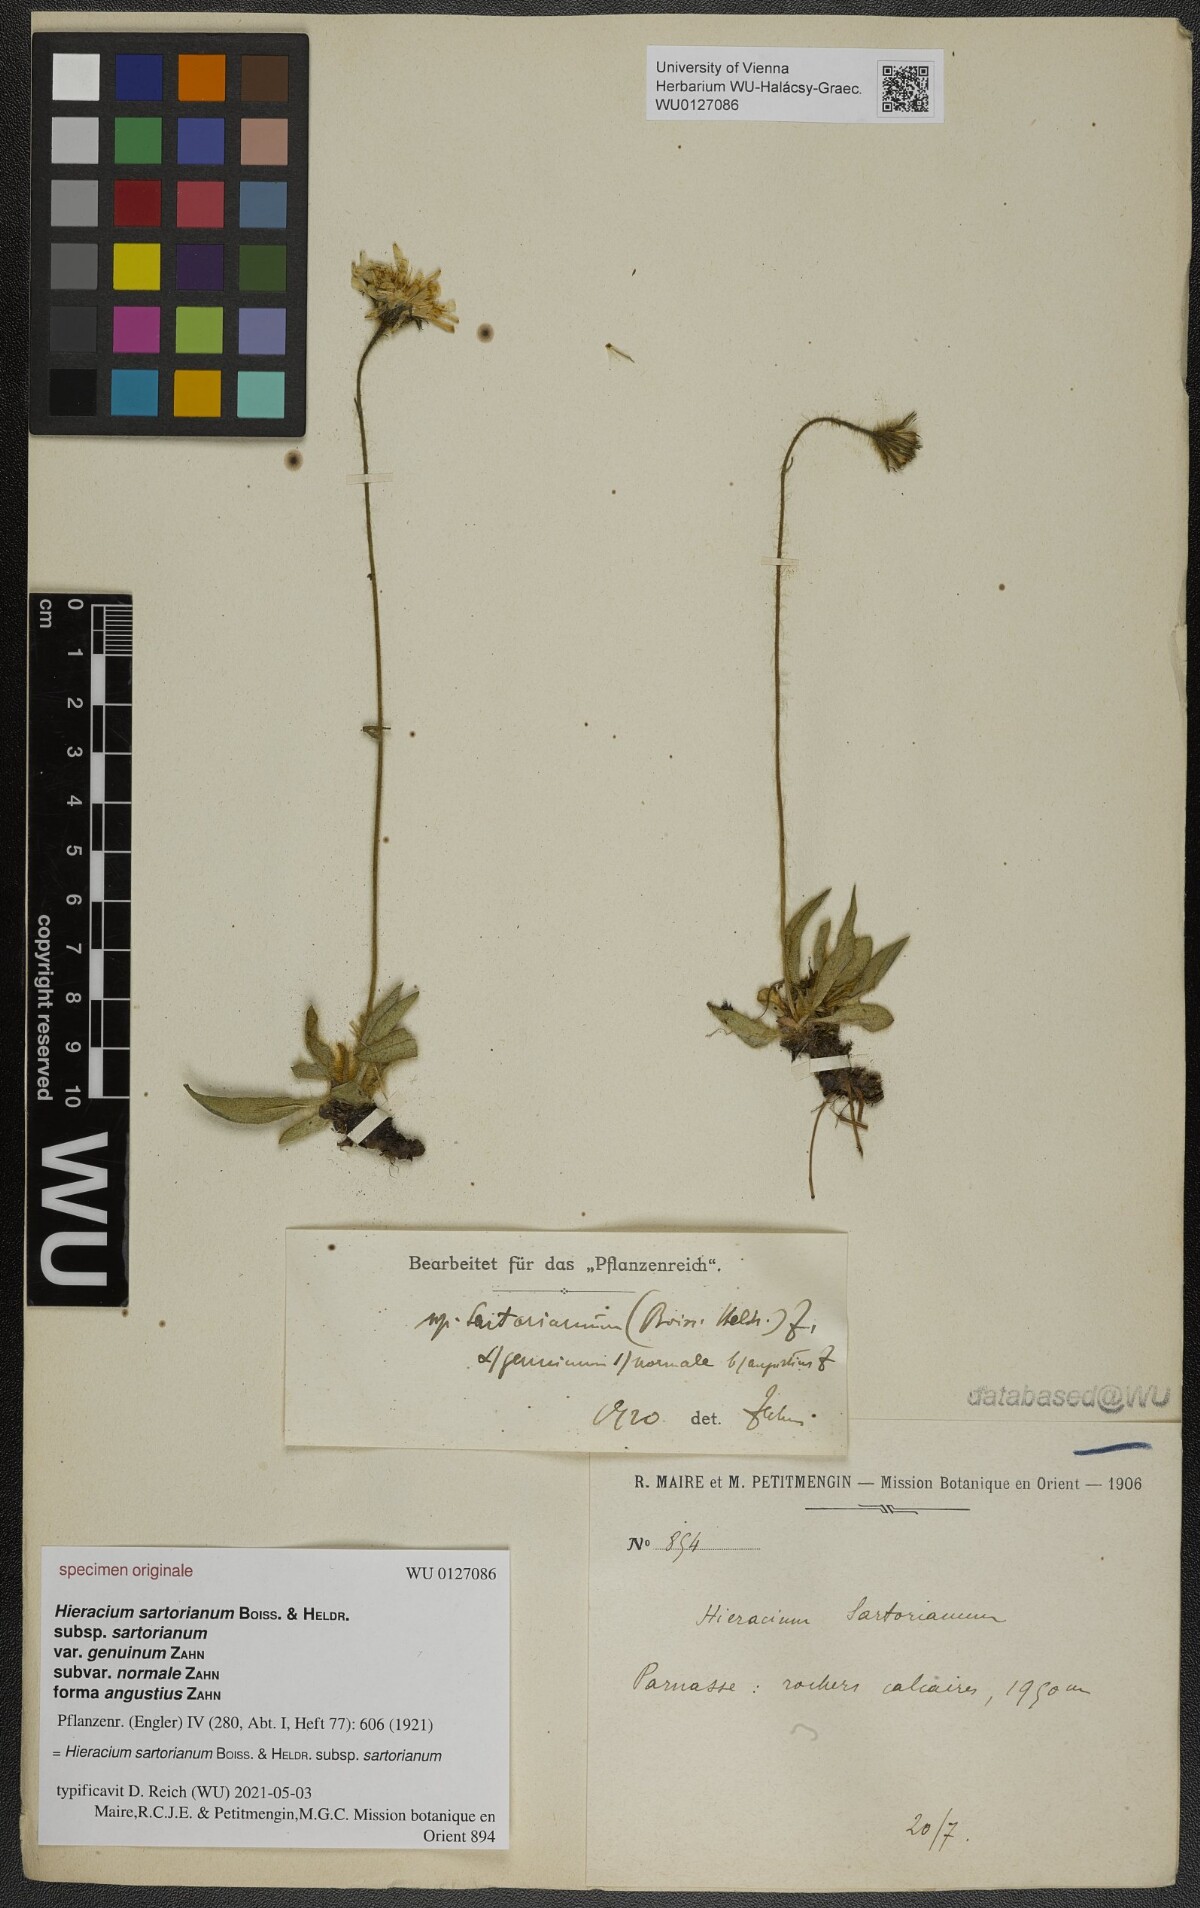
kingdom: Plantae
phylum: Tracheophyta
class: Magnoliopsida
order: Asterales
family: Asteraceae
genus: Hieracium
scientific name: Hieracium sartorianum
